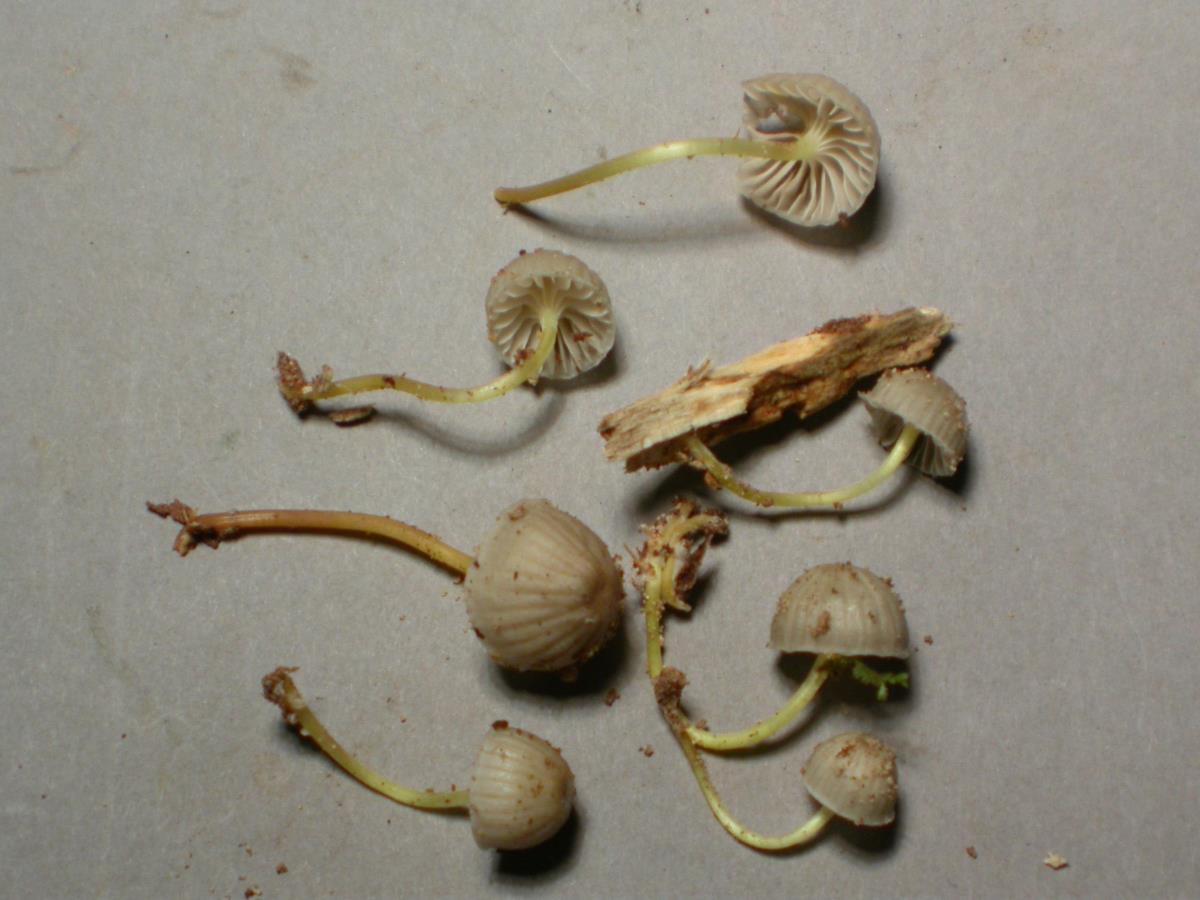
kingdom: Fungi
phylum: Basidiomycota
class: Agaricomycetes
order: Agaricales
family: Mycenaceae
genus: Mycena
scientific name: Mycena subviscosa
